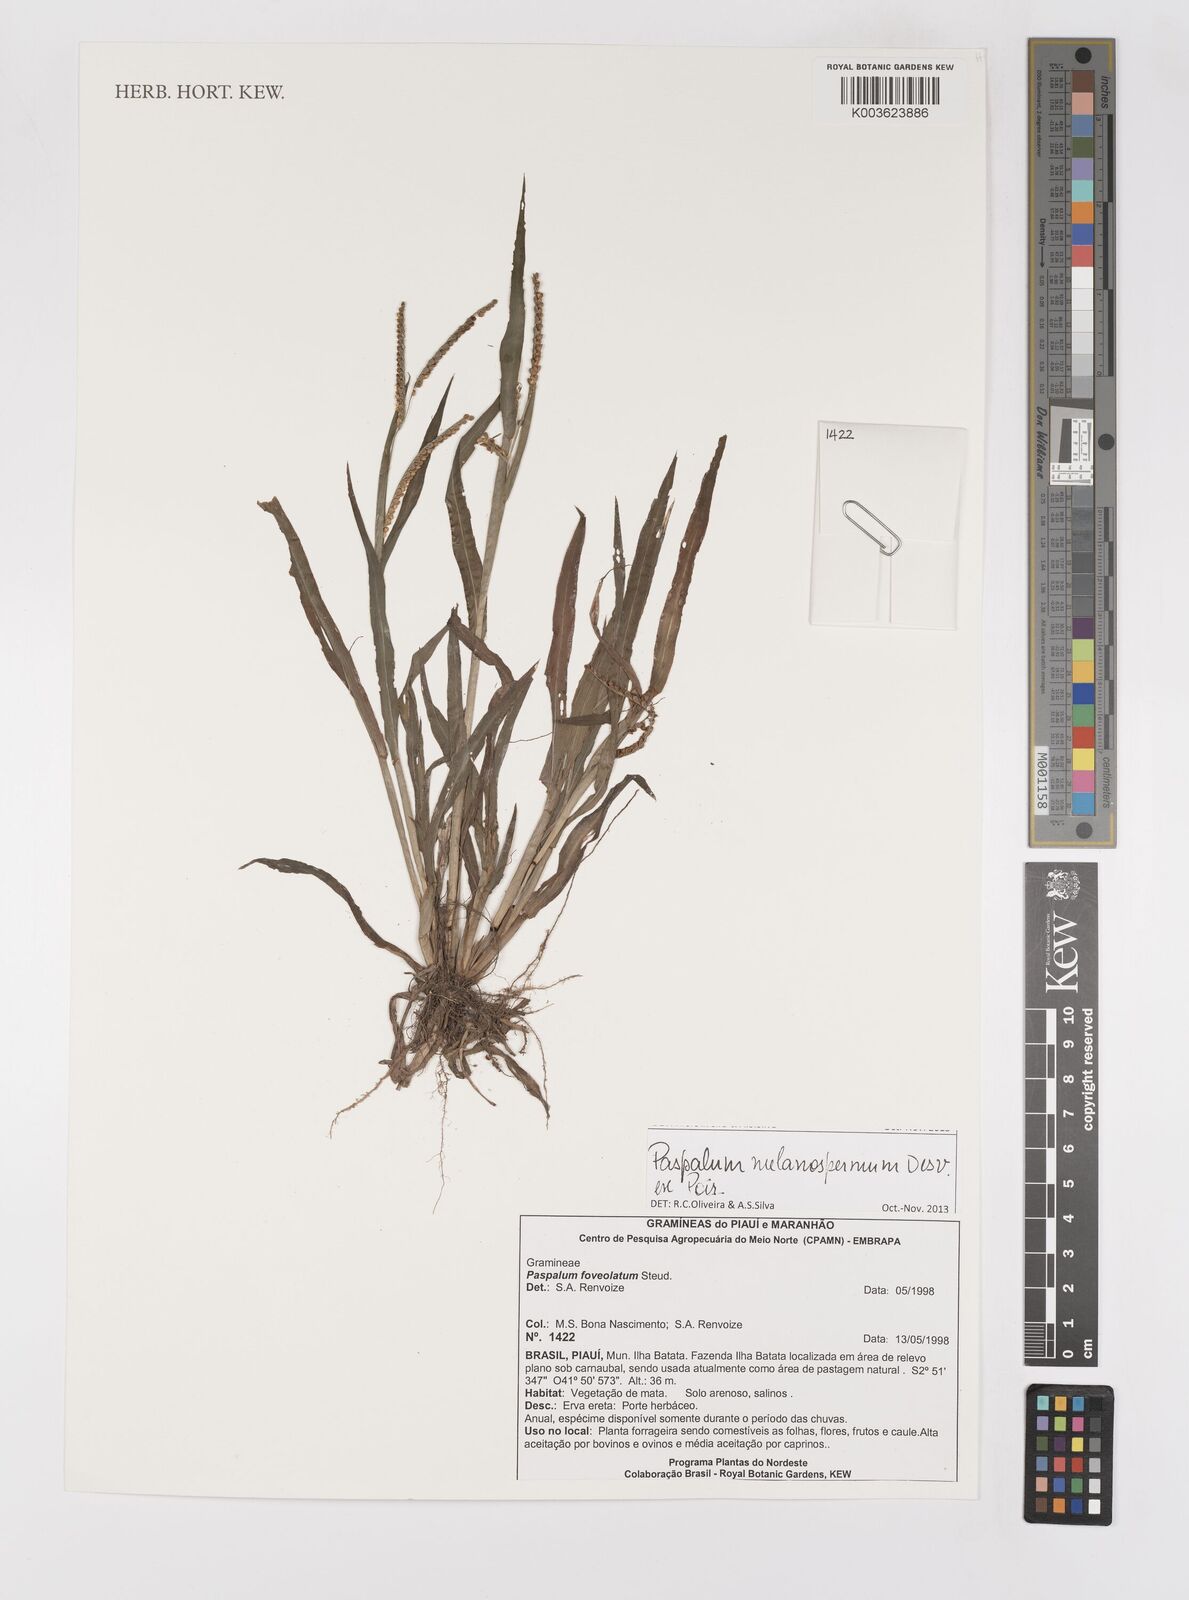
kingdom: Plantae
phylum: Tracheophyta
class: Liliopsida
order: Poales
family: Poaceae
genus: Paspalum
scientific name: Paspalum melanospermum
